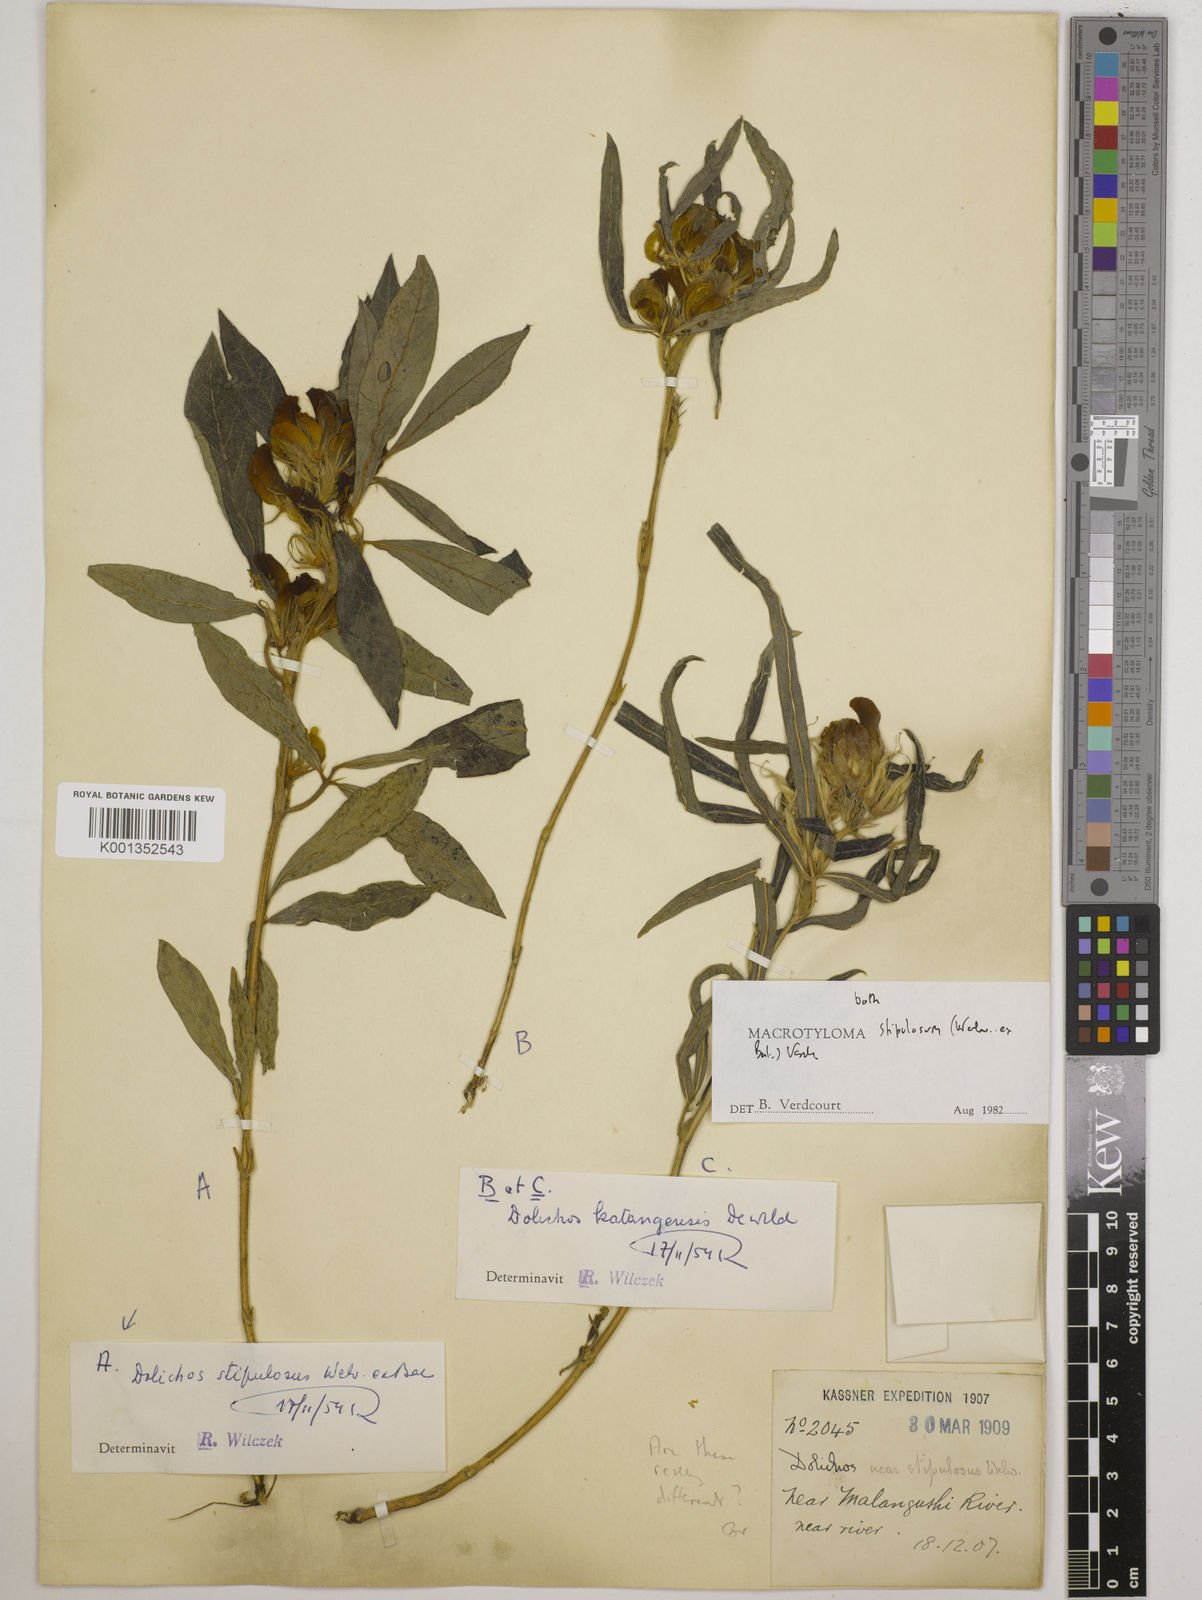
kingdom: Plantae
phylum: Tracheophyta
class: Magnoliopsida
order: Fabales
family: Fabaceae
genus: Macrotyloma
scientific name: Macrotyloma stipulosum
